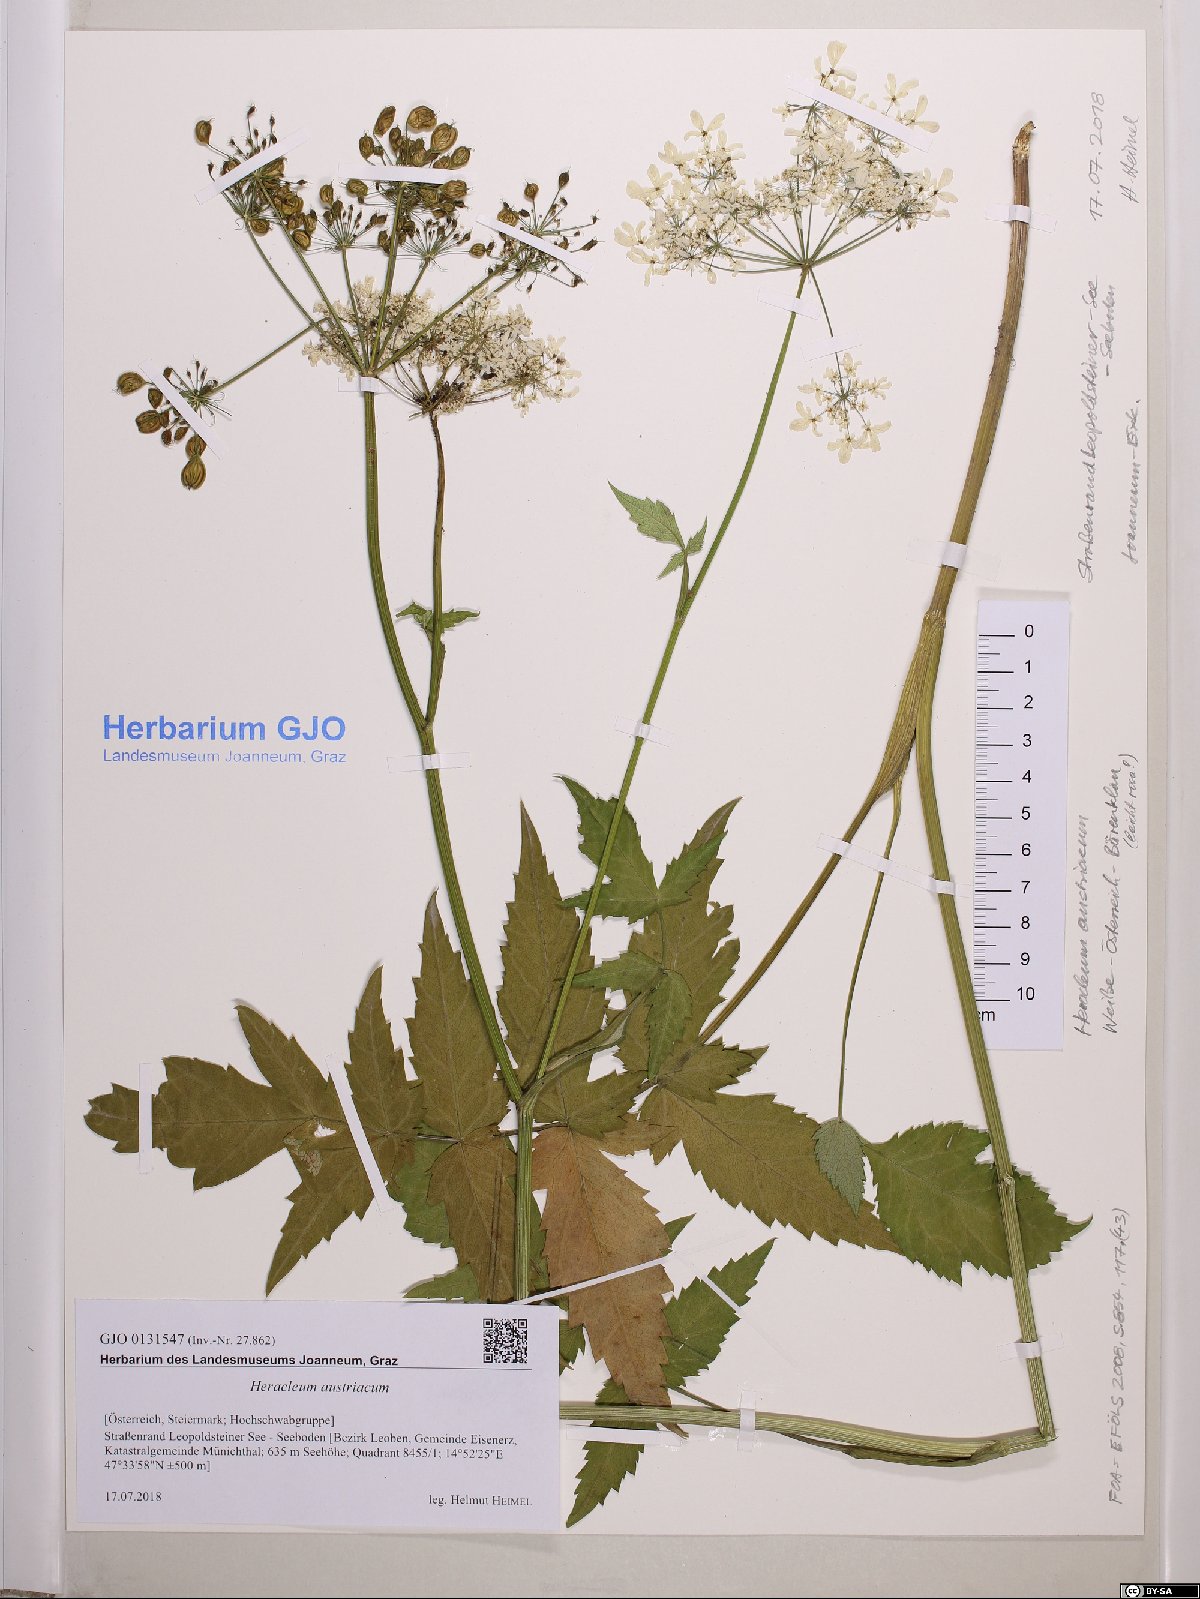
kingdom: Plantae
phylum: Tracheophyta
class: Magnoliopsida
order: Apiales
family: Apiaceae
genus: Heracleum
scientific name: Heracleum austriacum
